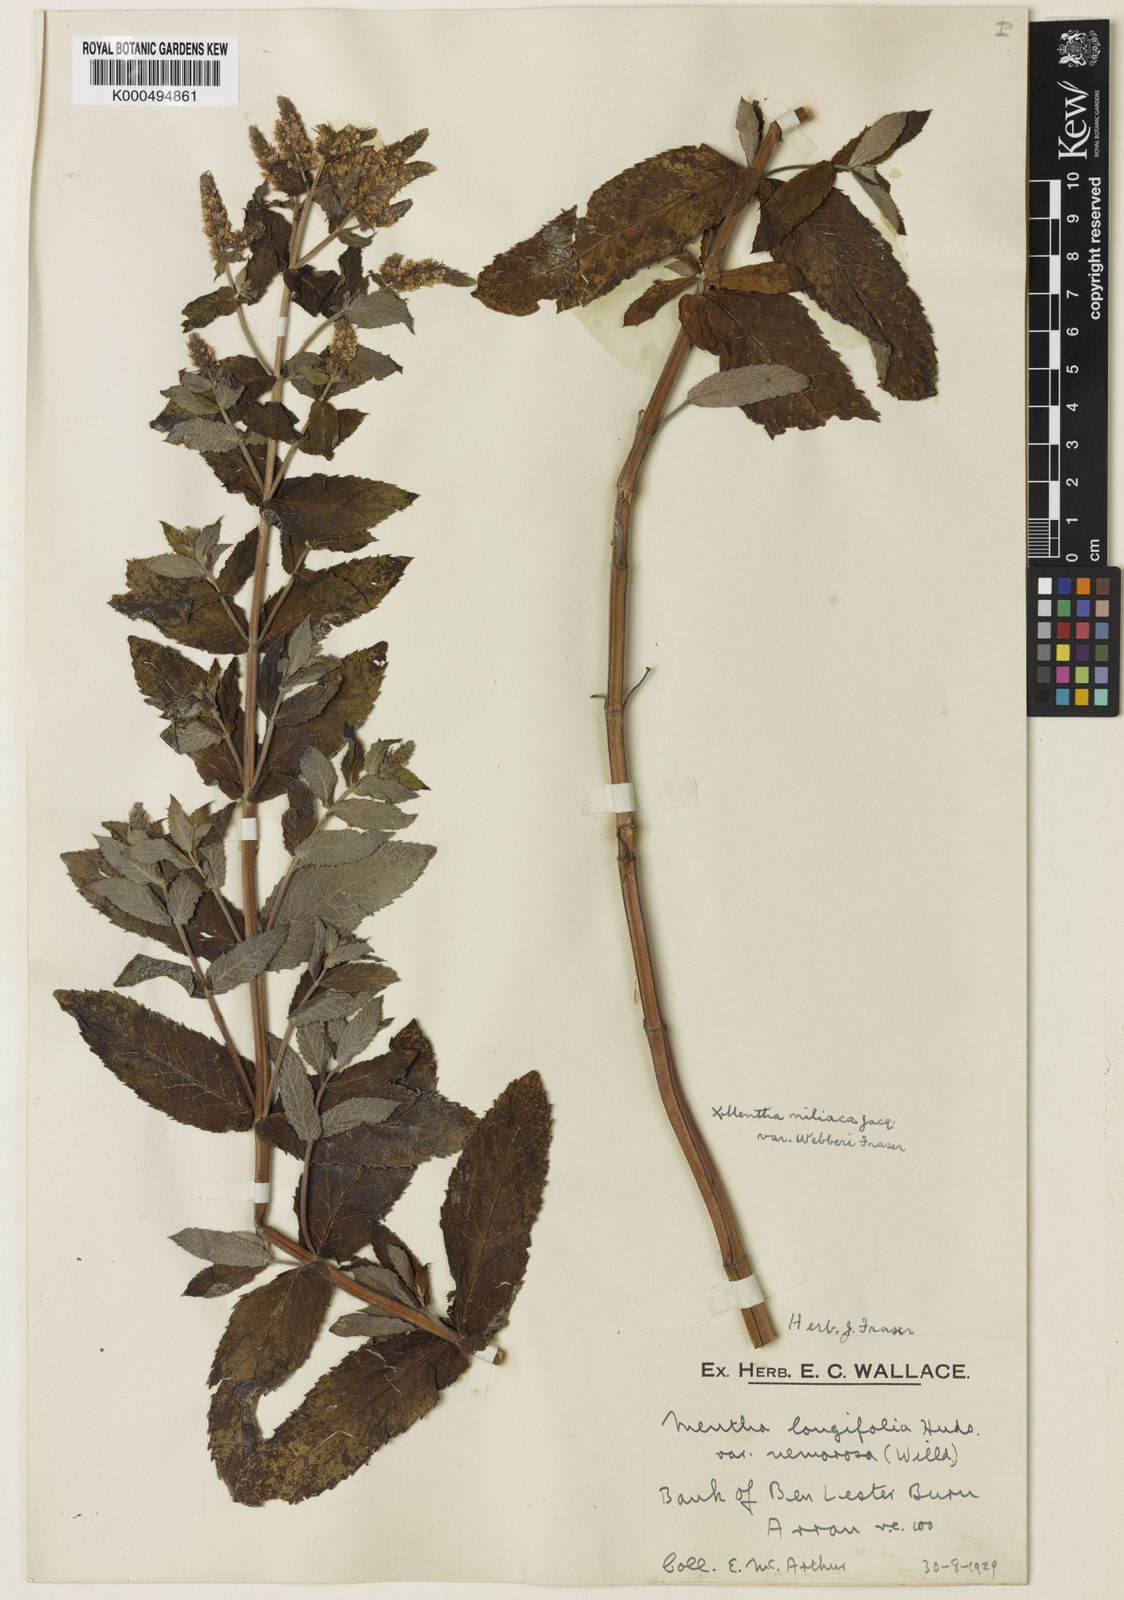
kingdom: Plantae
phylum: Tracheophyta
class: Magnoliopsida
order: Lamiales
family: Lamiaceae
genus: Mentha
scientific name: Mentha villosa
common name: Apple mint
